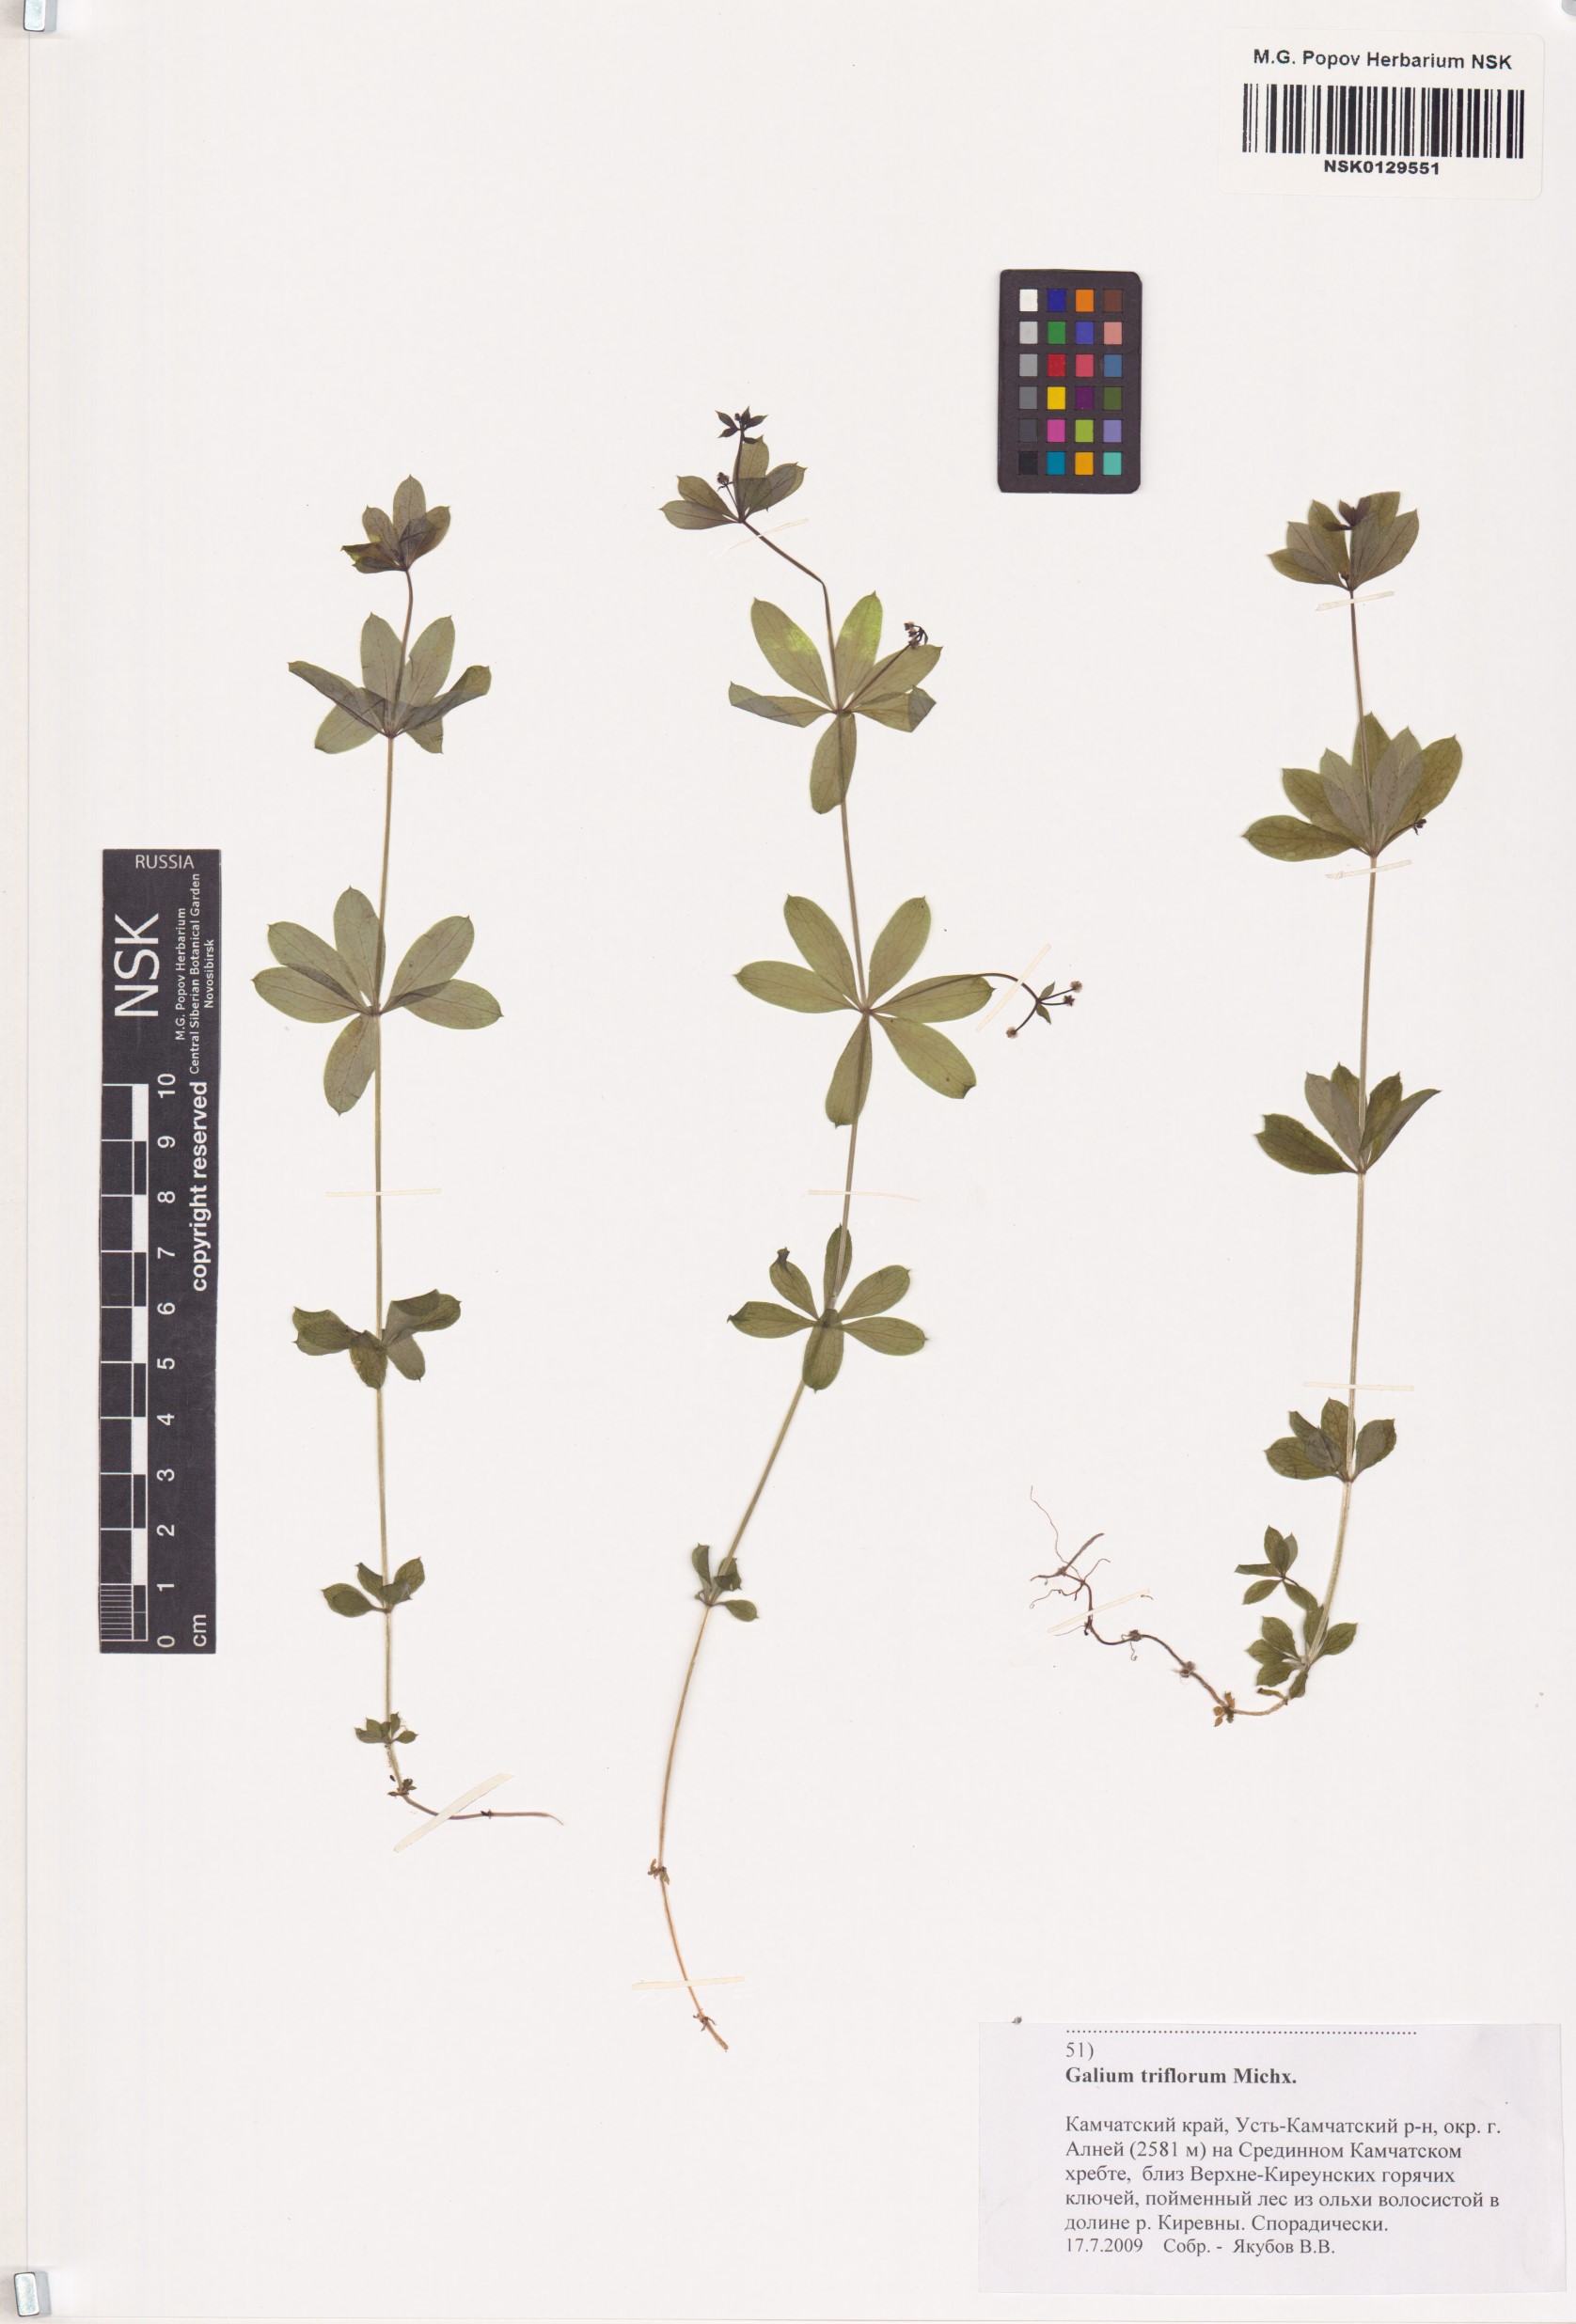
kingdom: Plantae
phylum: Tracheophyta
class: Magnoliopsida
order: Gentianales
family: Rubiaceae
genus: Galium
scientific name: Galium triflorum
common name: Fragrant bedstraw
